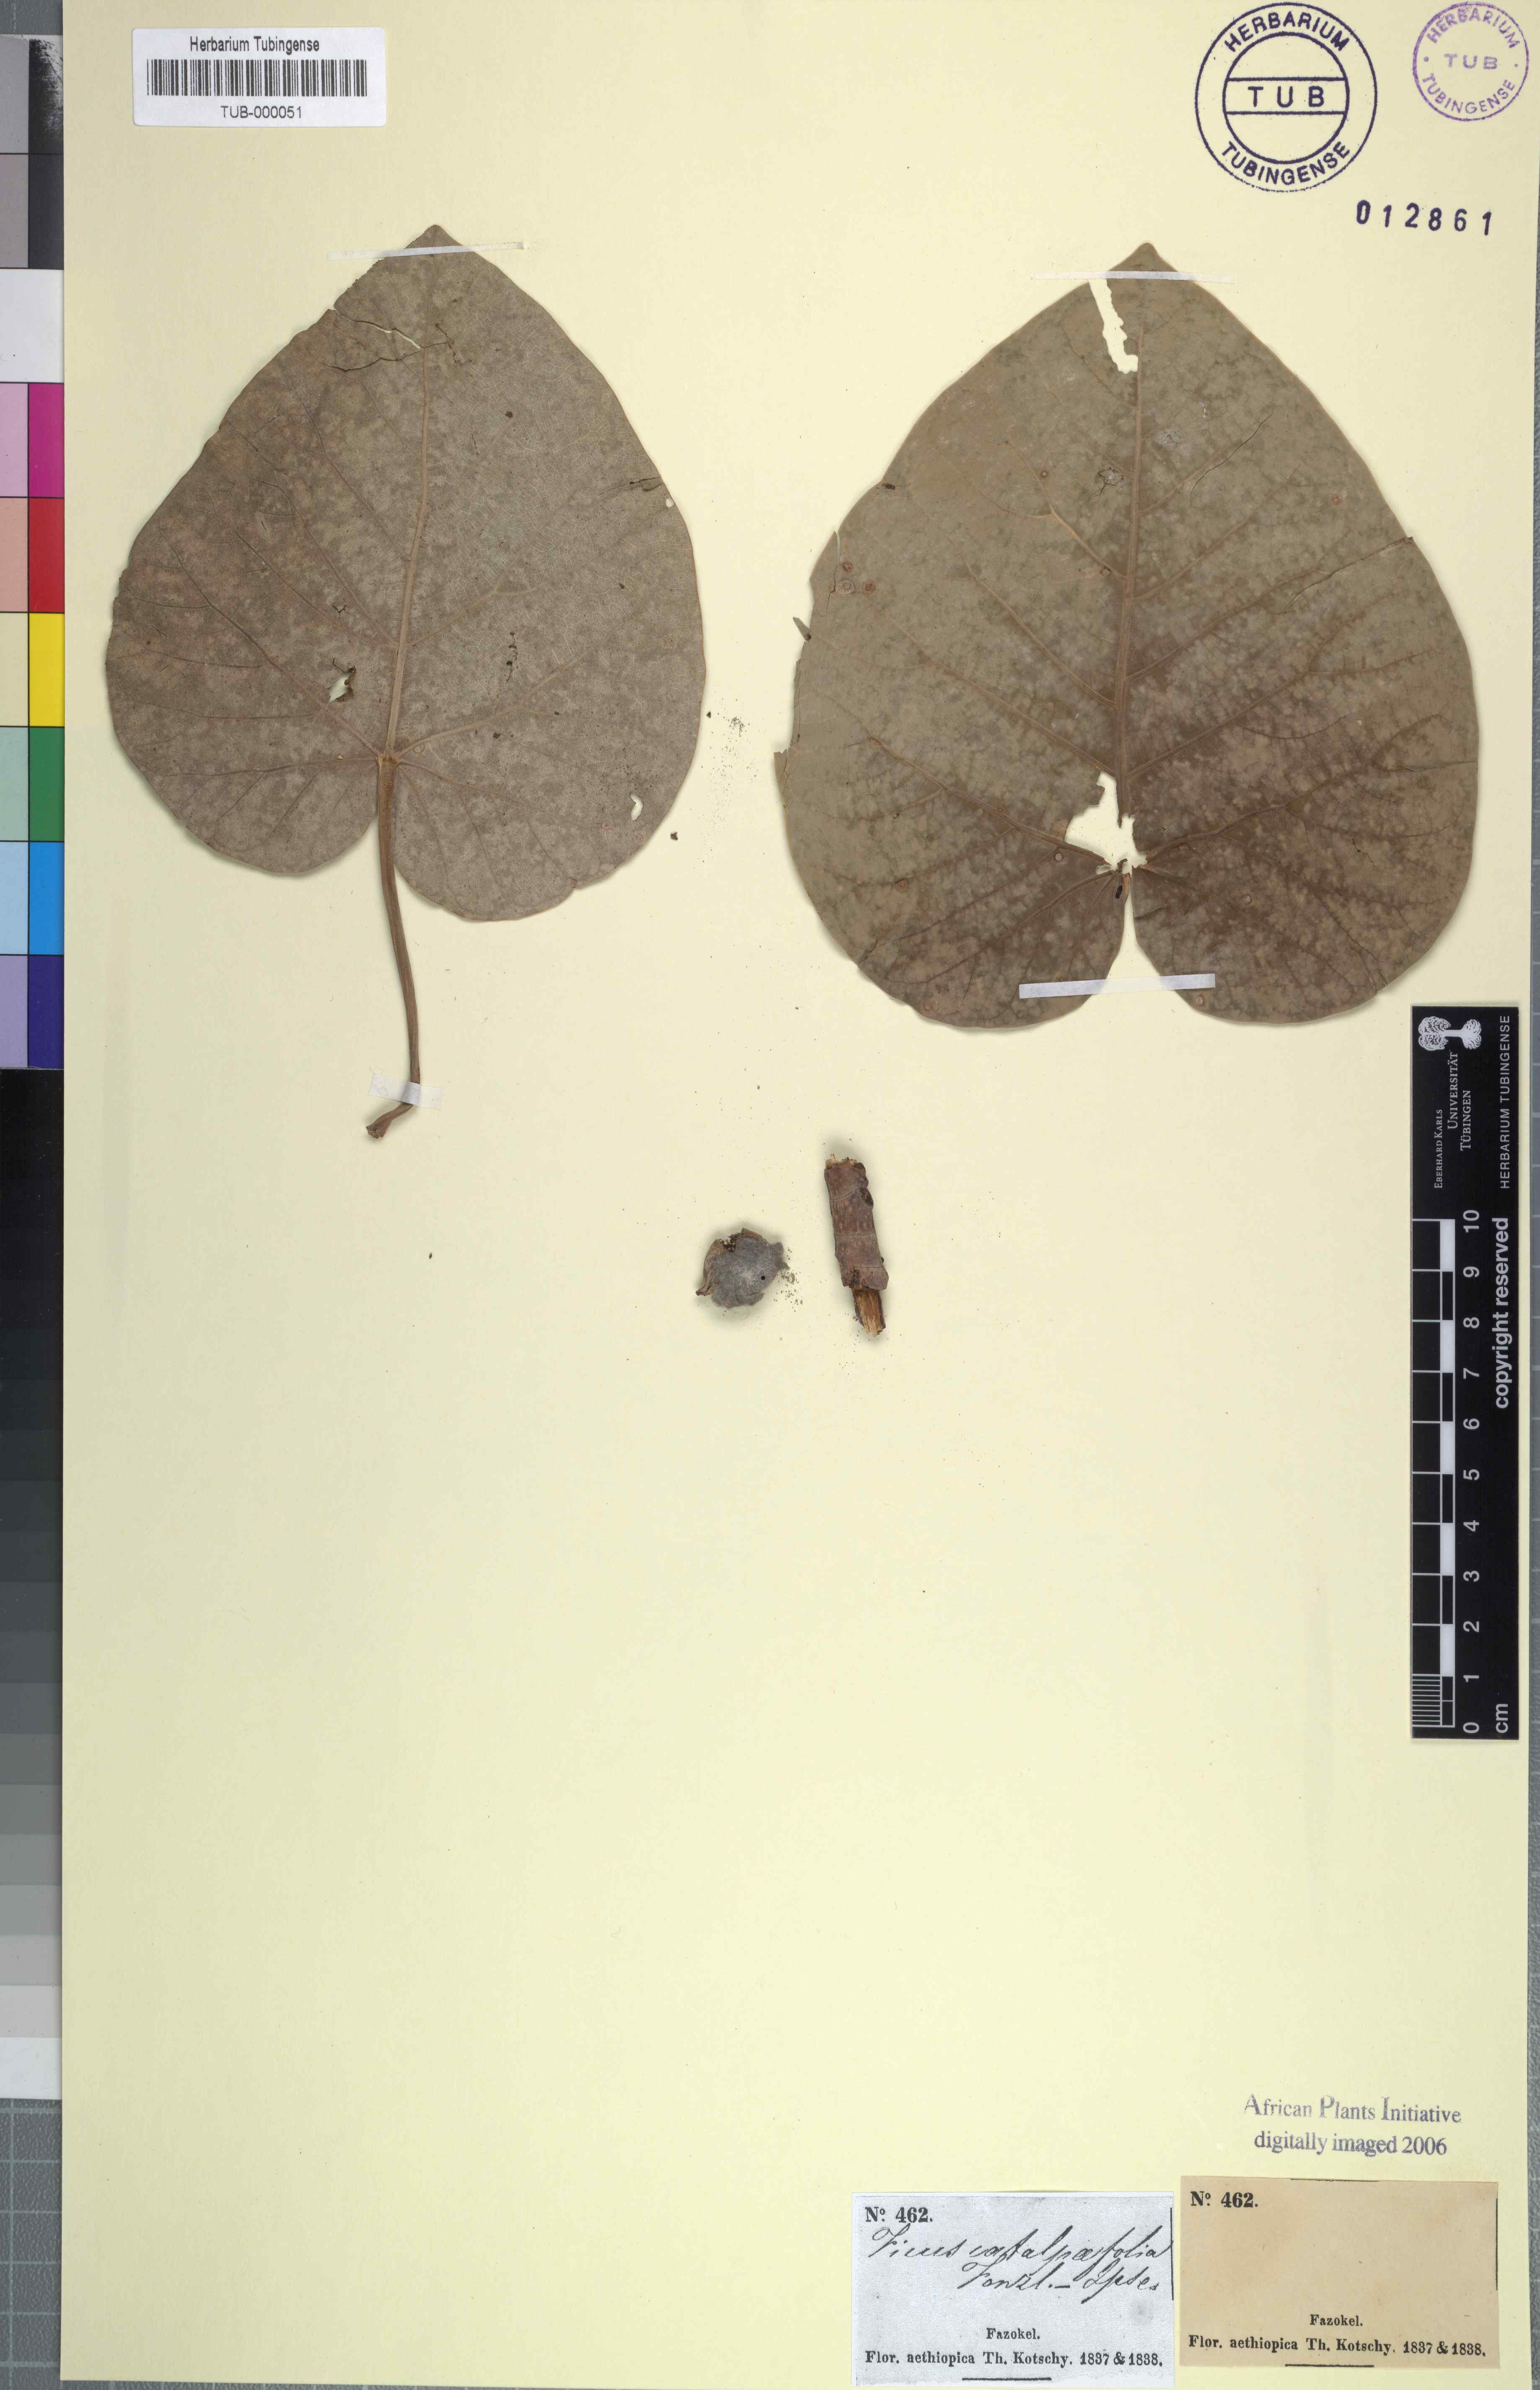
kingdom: Plantae
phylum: Tracheophyta
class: Magnoliopsida
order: Rosales
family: Moraceae
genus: Ficus
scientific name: Ficus
